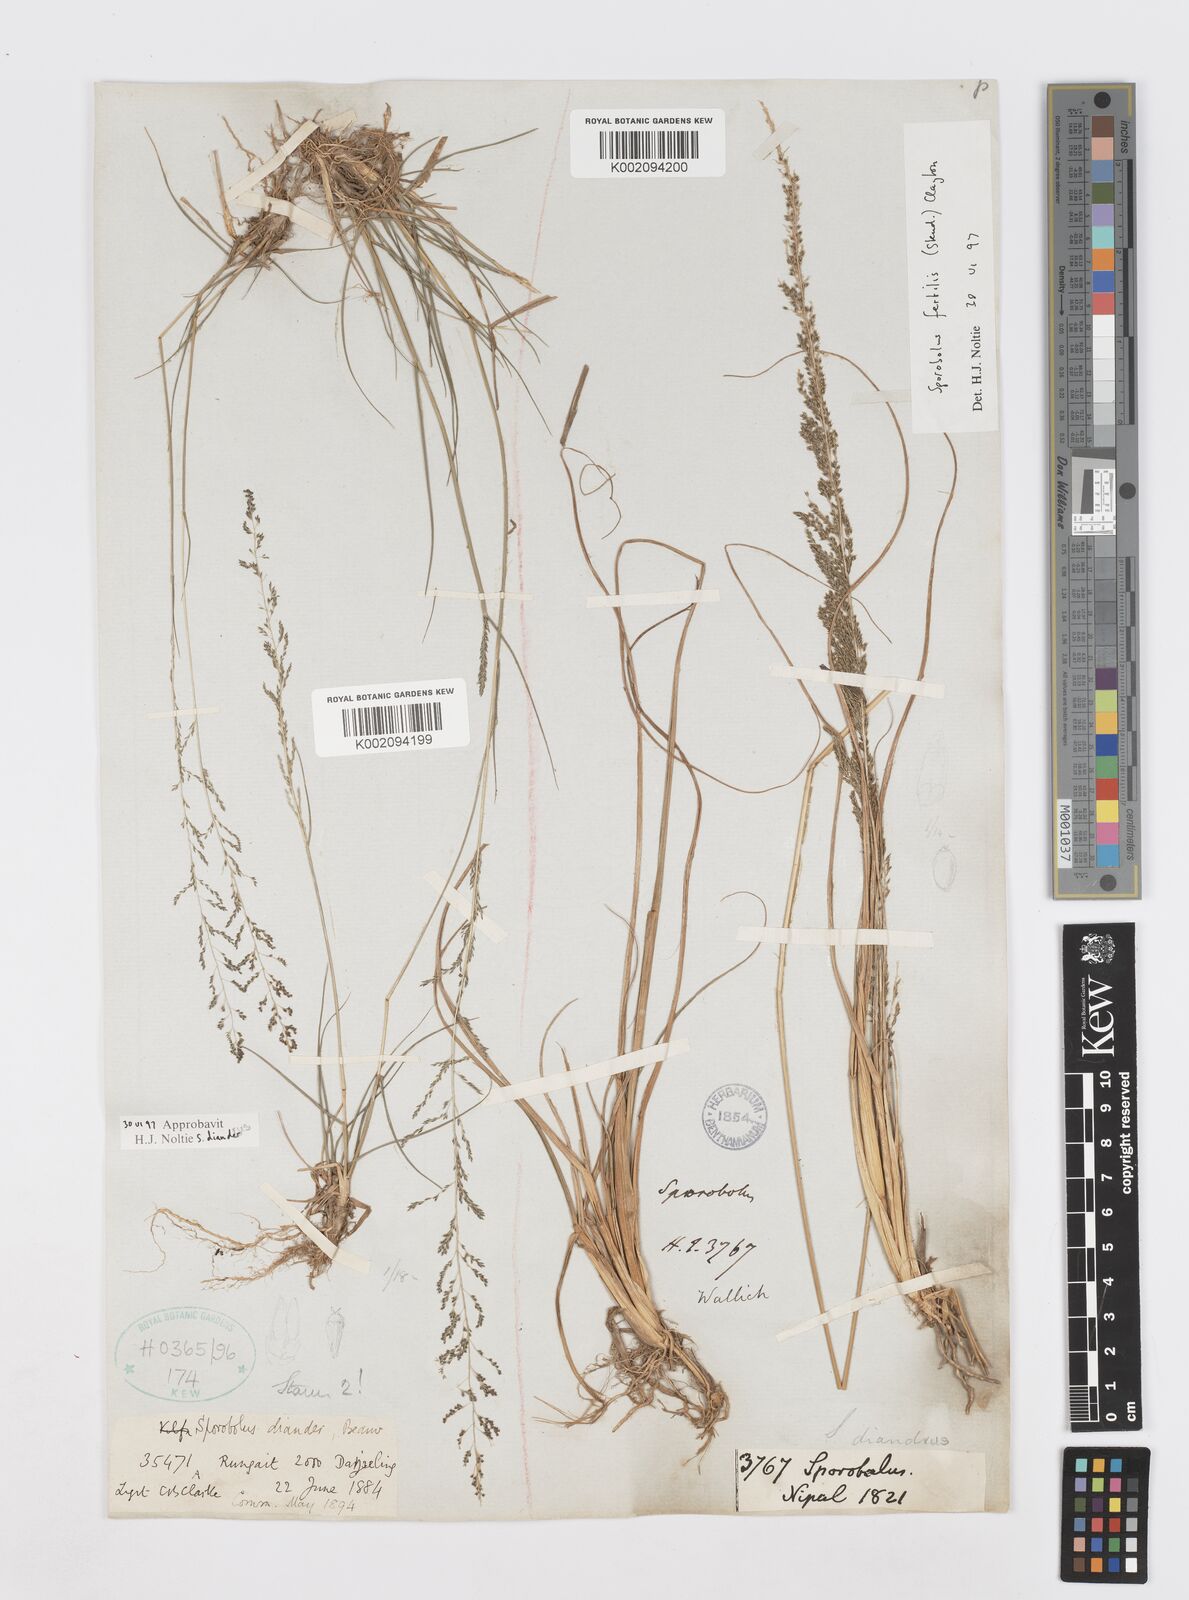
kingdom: Plantae
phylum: Tracheophyta
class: Liliopsida
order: Poales
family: Poaceae
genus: Sporobolus
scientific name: Sporobolus diandrus
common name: Tussock dropseed
